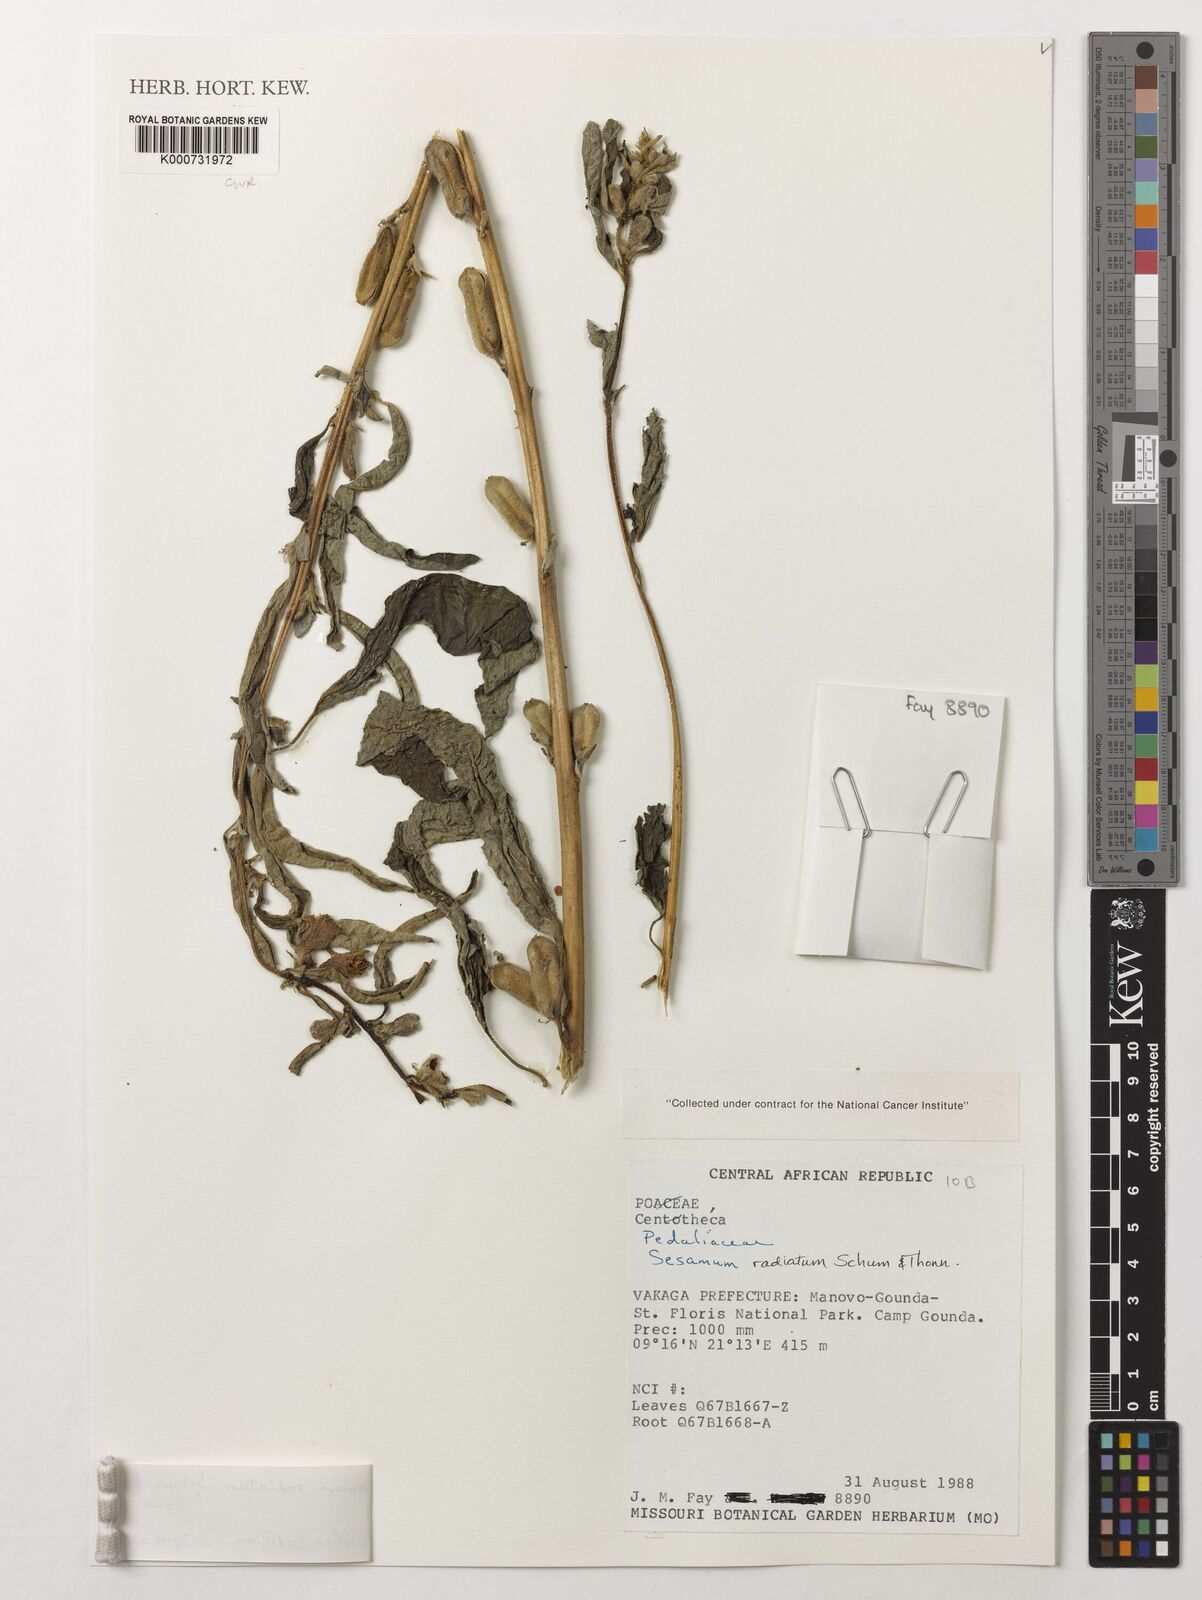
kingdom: Plantae
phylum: Tracheophyta
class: Magnoliopsida
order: Lamiales
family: Pedaliaceae
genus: Sesamum
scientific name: Sesamum
